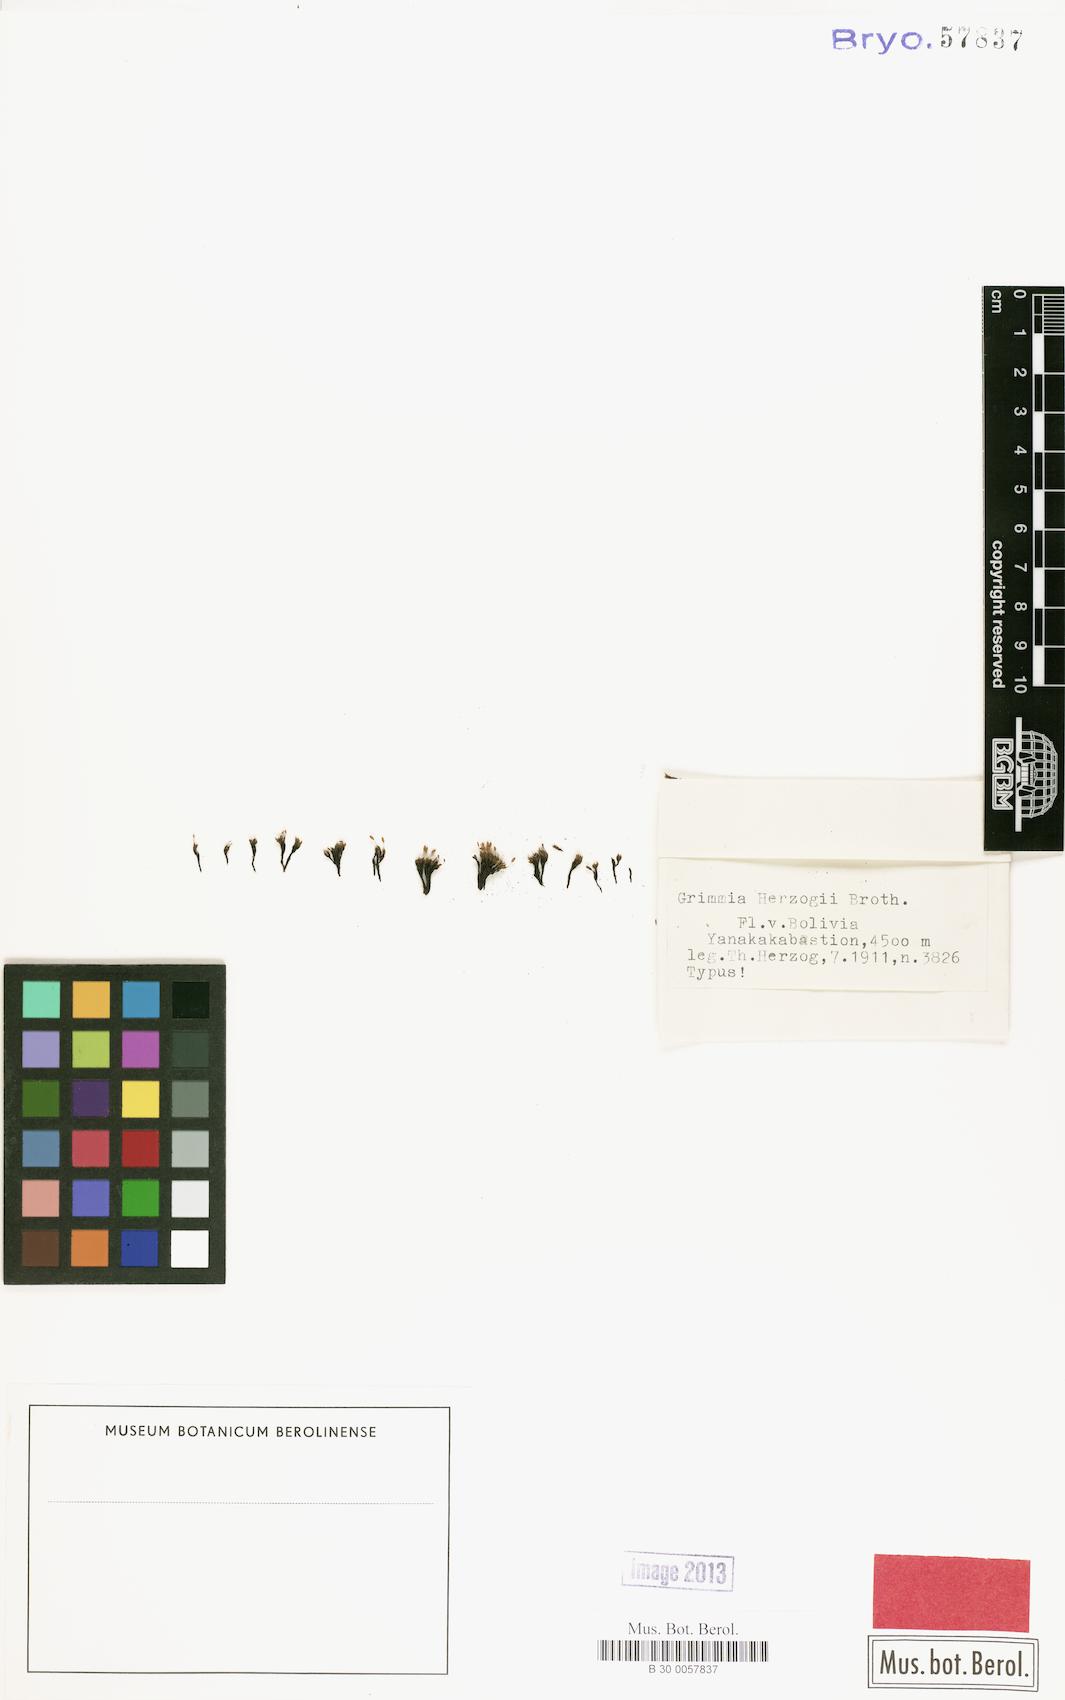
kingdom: Plantae
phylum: Bryophyta
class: Bryopsida
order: Grimmiales
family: Grimmiaceae
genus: Grimmia
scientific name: Grimmia herzogii
